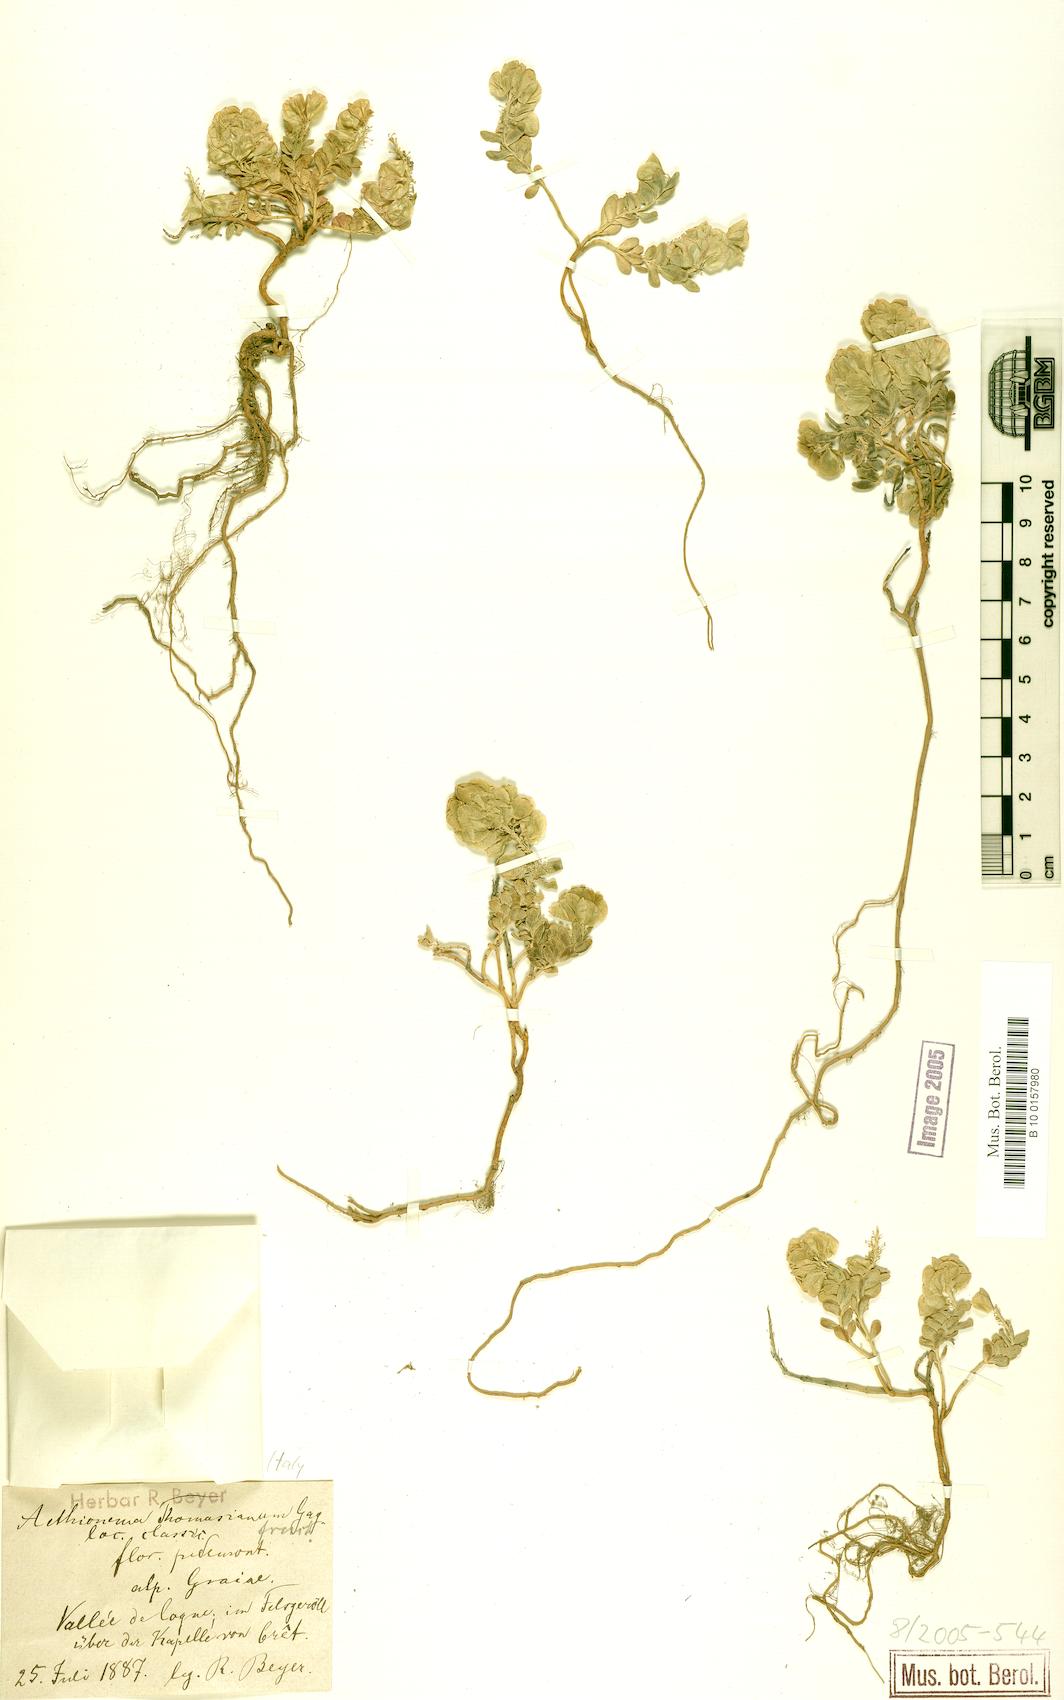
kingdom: Plantae
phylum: Tracheophyta
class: Magnoliopsida
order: Brassicales
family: Brassicaceae
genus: Aethionema
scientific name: Aethionema thomasianum
